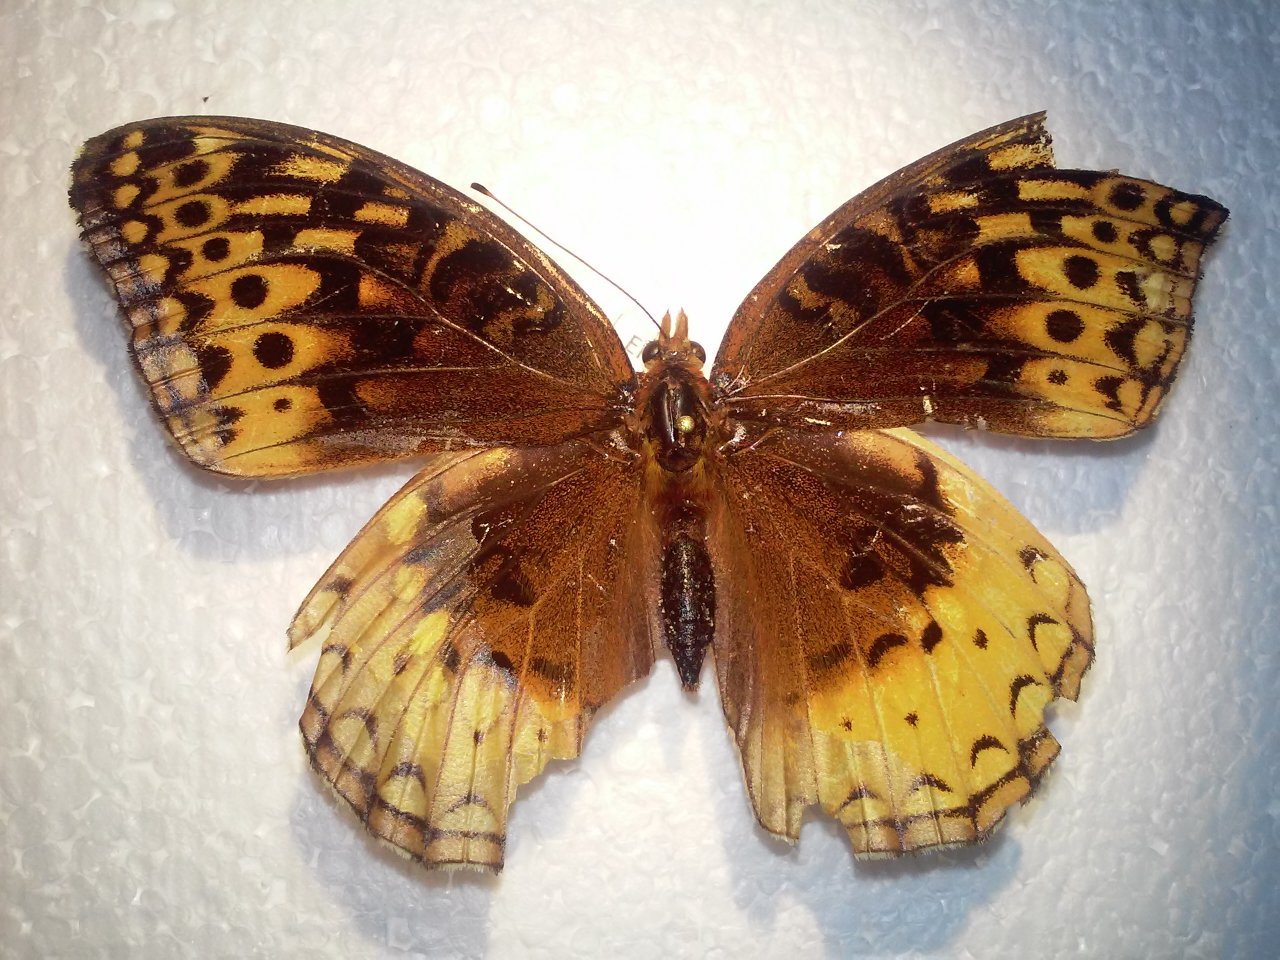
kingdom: Animalia
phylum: Arthropoda
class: Insecta
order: Lepidoptera
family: Nymphalidae
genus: Speyeria
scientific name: Speyeria cybele
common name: Great Spangled Fritillary
